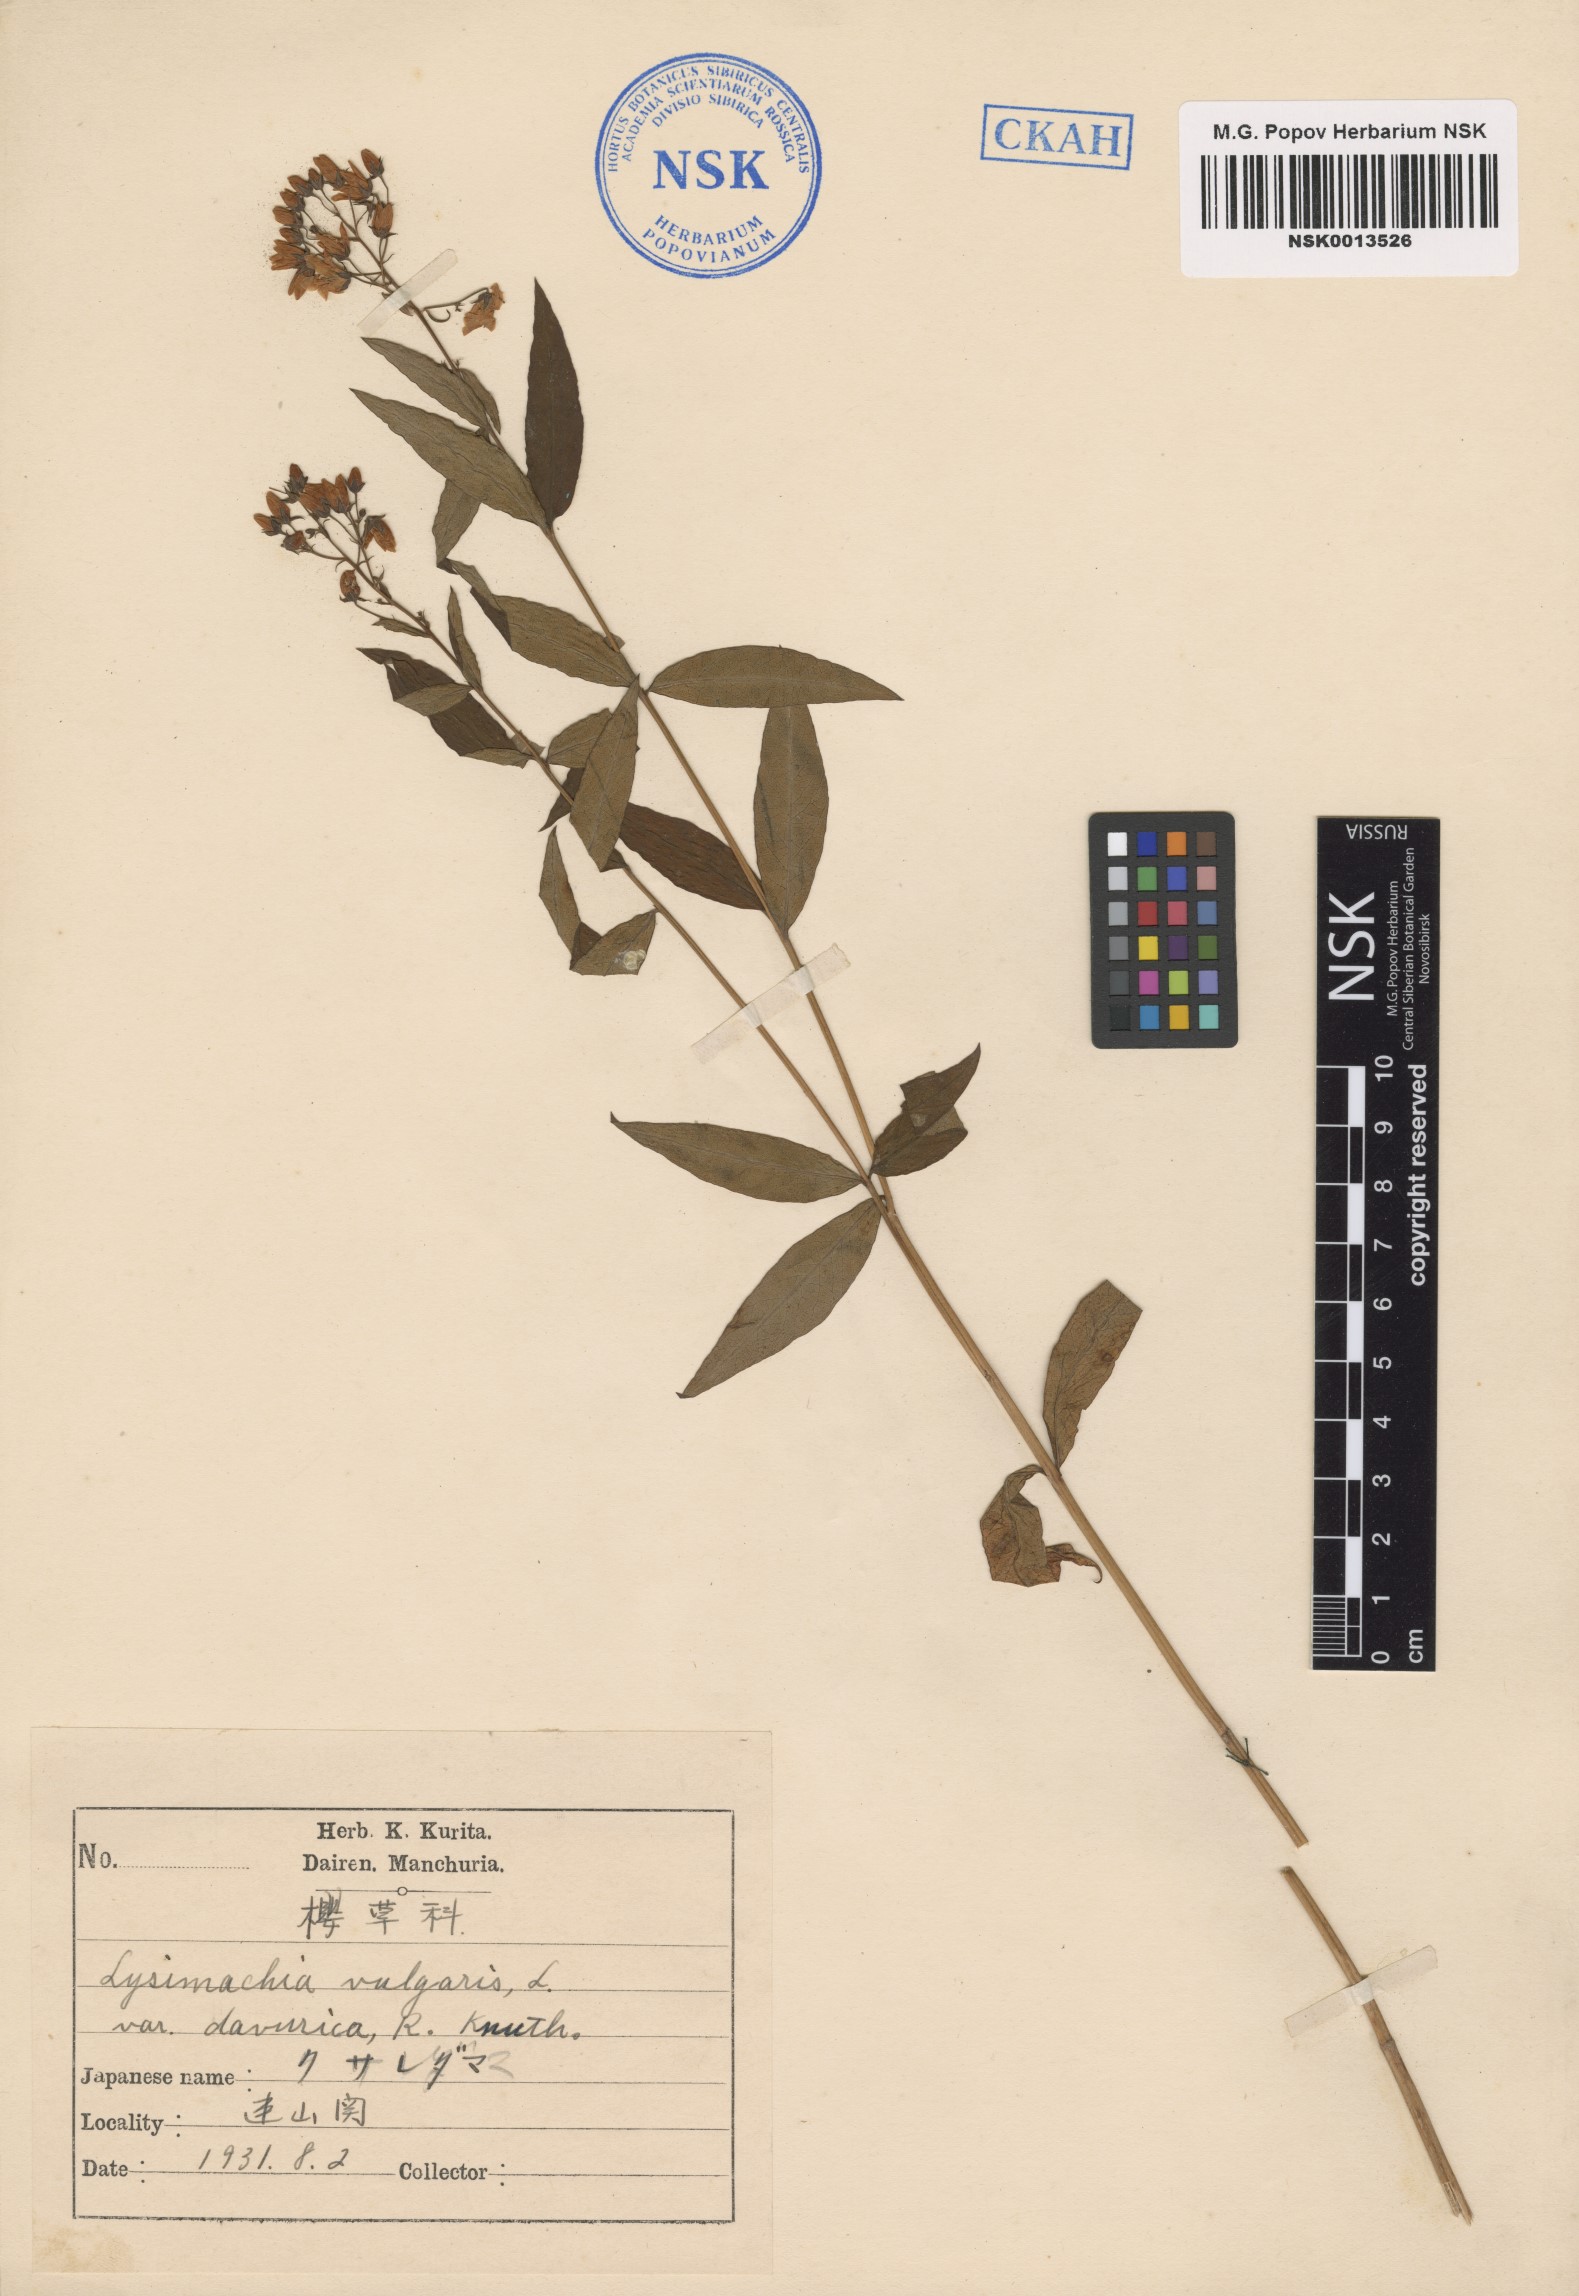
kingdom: Plantae
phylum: Tracheophyta
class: Magnoliopsida
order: Ericales
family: Primulaceae
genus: Lysimachia
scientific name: Lysimachia davurica
